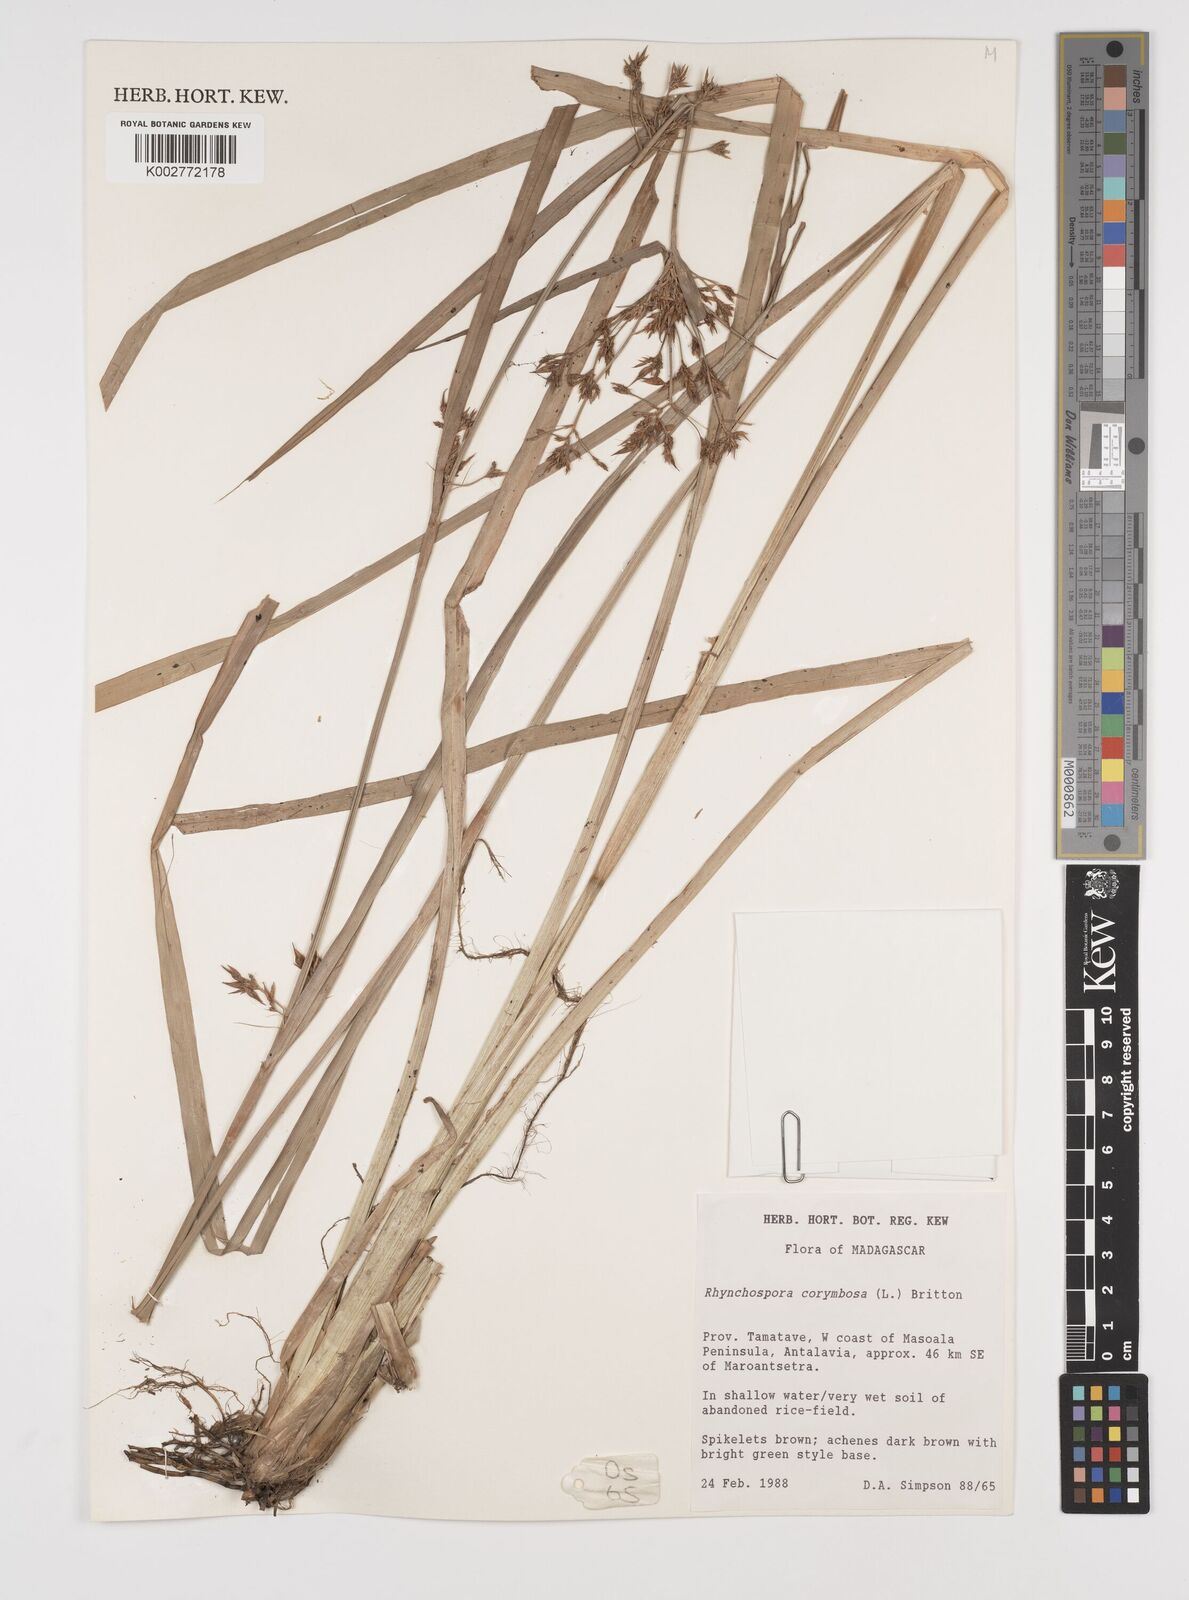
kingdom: Plantae
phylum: Tracheophyta
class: Liliopsida
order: Poales
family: Cyperaceae
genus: Rhynchospora
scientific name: Rhynchospora corymbosa
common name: Golden beak sedge
